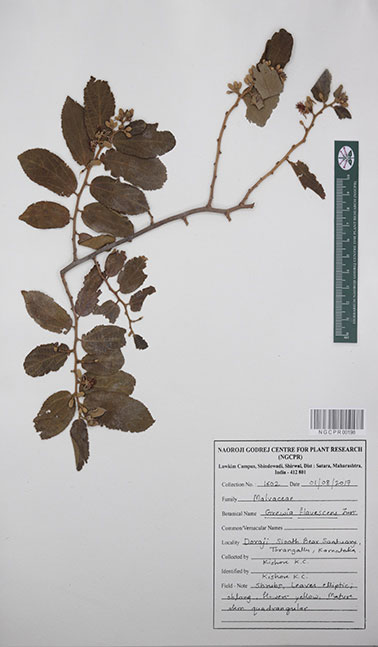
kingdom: Plantae
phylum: Tracheophyta
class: Magnoliopsida
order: Malvales
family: Malvaceae
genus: Grewia
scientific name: Grewia flavescens
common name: Sandpaper raisin
